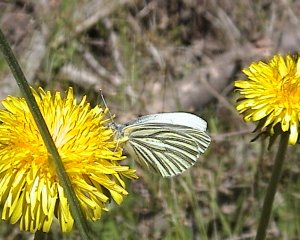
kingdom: Animalia
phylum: Arthropoda
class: Insecta
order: Lepidoptera
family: Pieridae
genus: Pieris
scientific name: Pieris oleracea
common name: Mustard White
